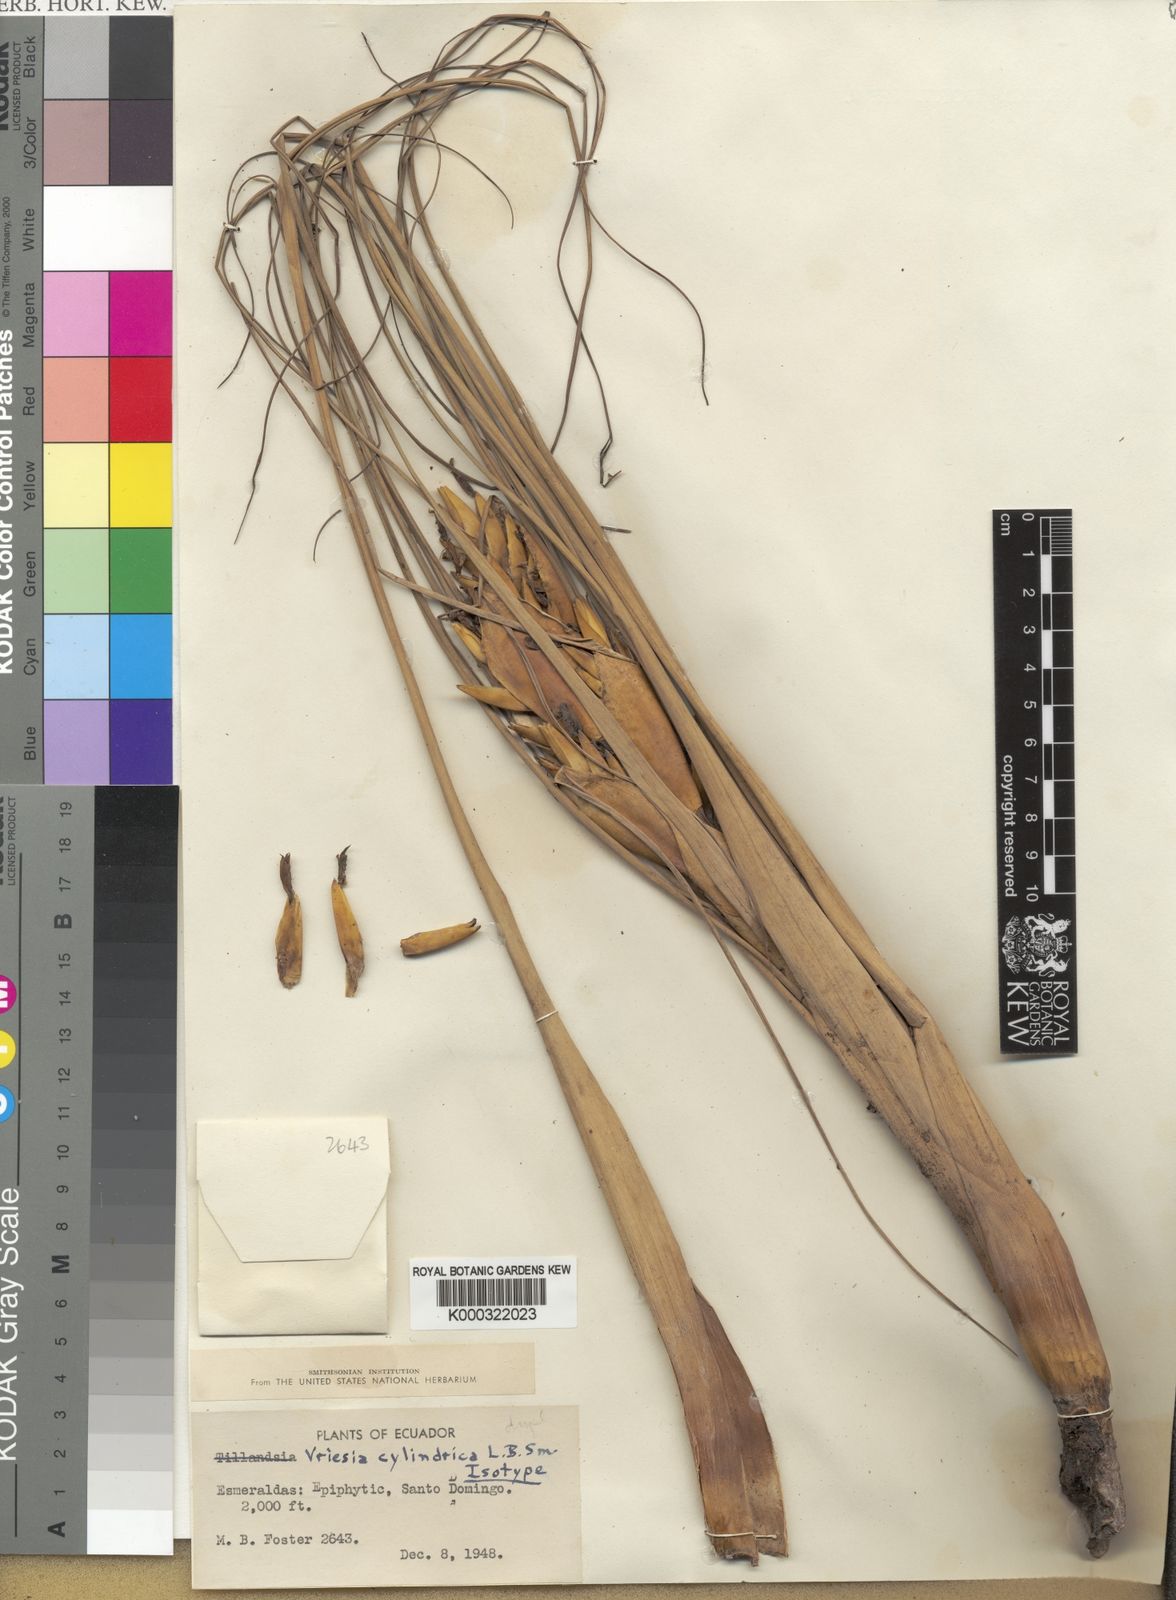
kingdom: Plantae
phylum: Tracheophyta
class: Liliopsida
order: Poales
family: Bromeliaceae
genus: Vriesea
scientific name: Vriesea cylindrica
